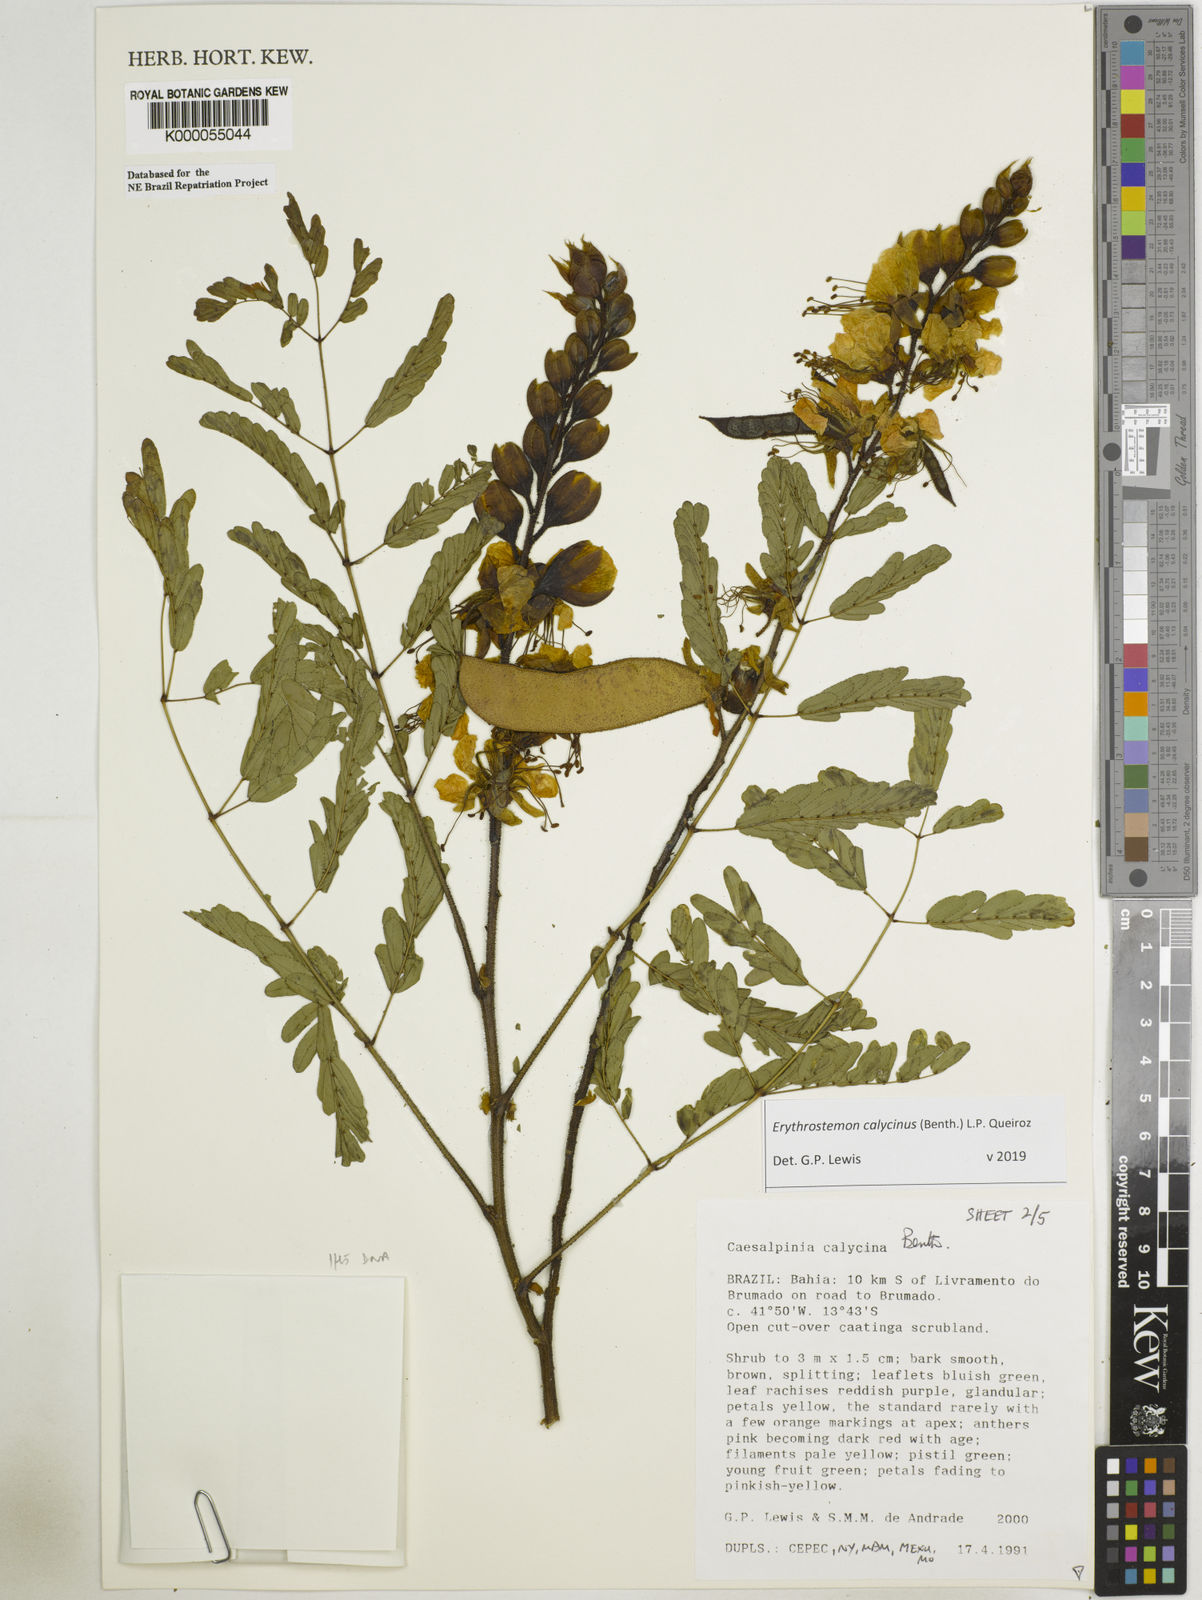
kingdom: Plantae
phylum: Tracheophyta
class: Magnoliopsida
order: Fabales
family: Fabaceae
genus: Erythrostemon
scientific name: Erythrostemon calycinus
